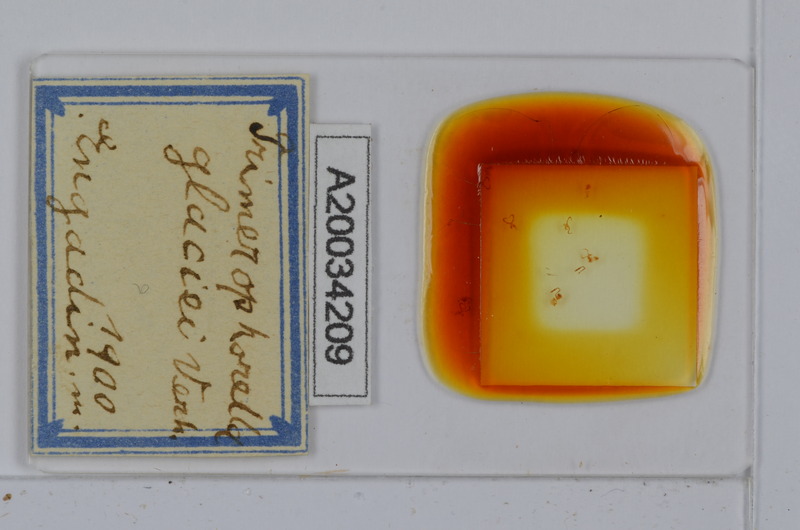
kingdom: Animalia
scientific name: Animalia
